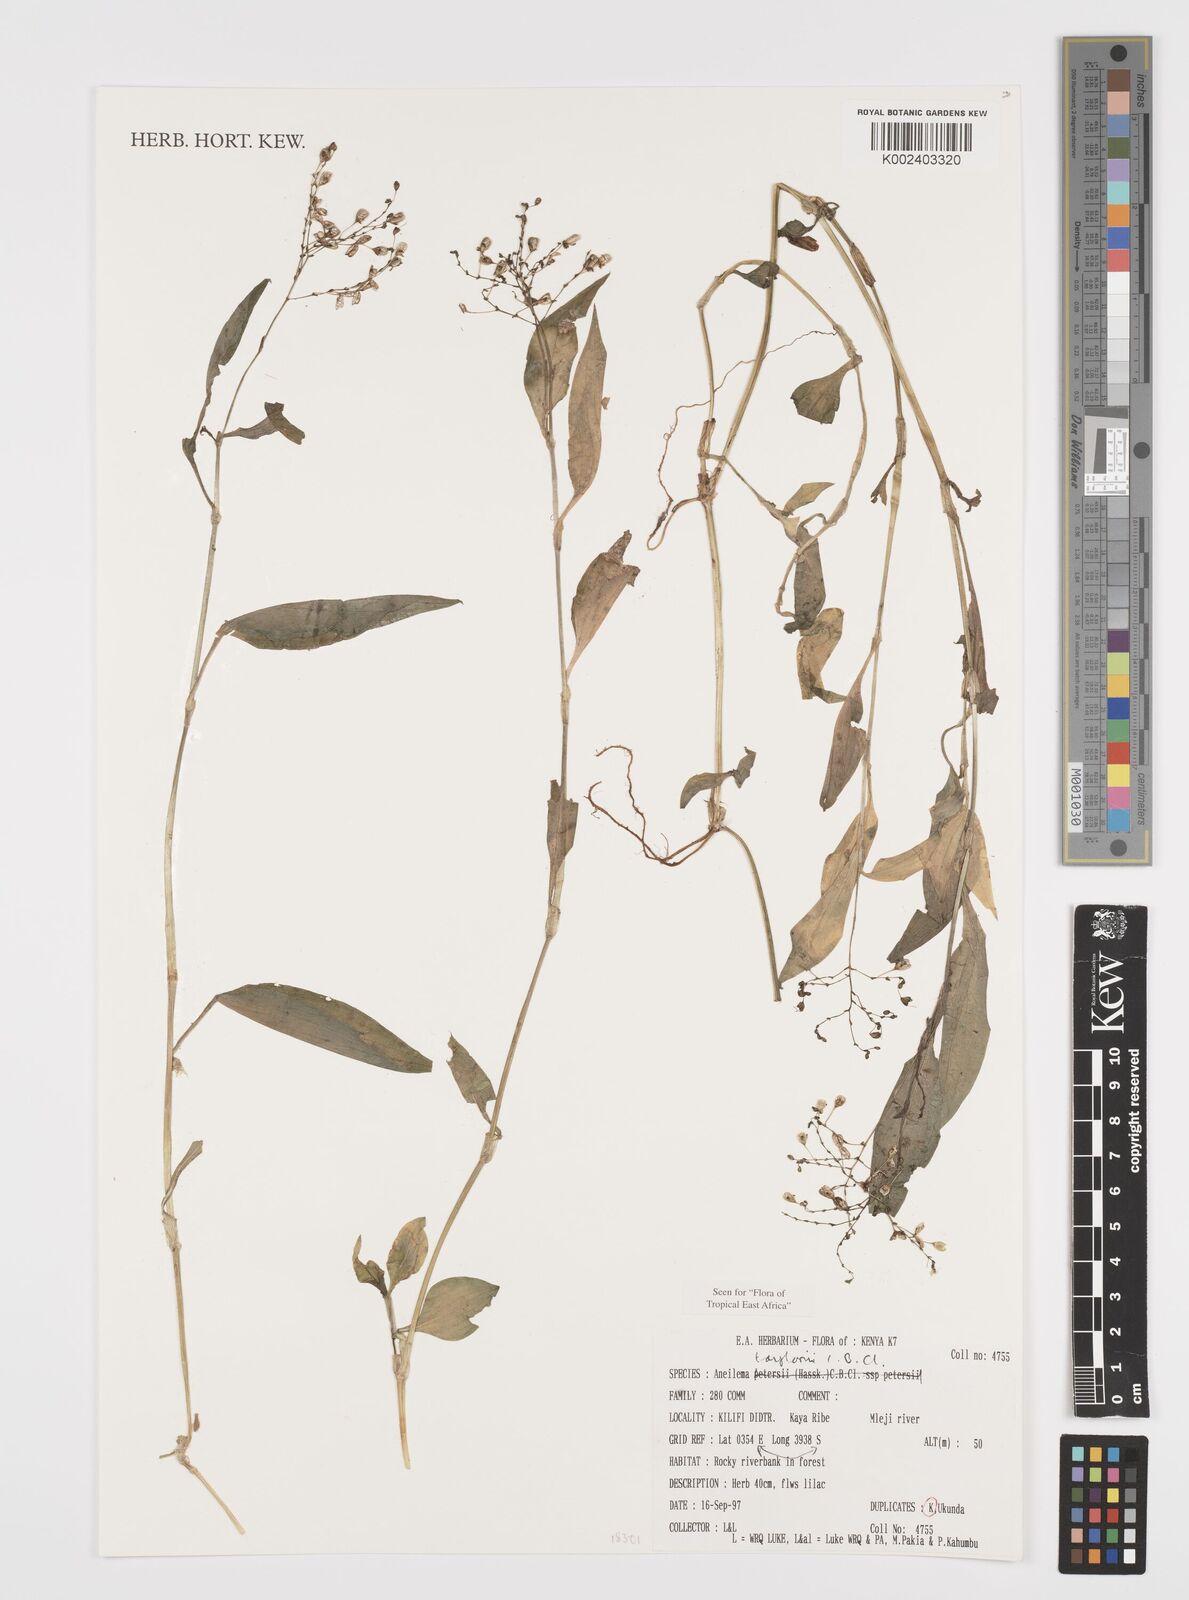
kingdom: Plantae
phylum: Tracheophyta
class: Liliopsida
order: Commelinales
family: Commelinaceae
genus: Aneilema
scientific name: Aneilema taylorii
